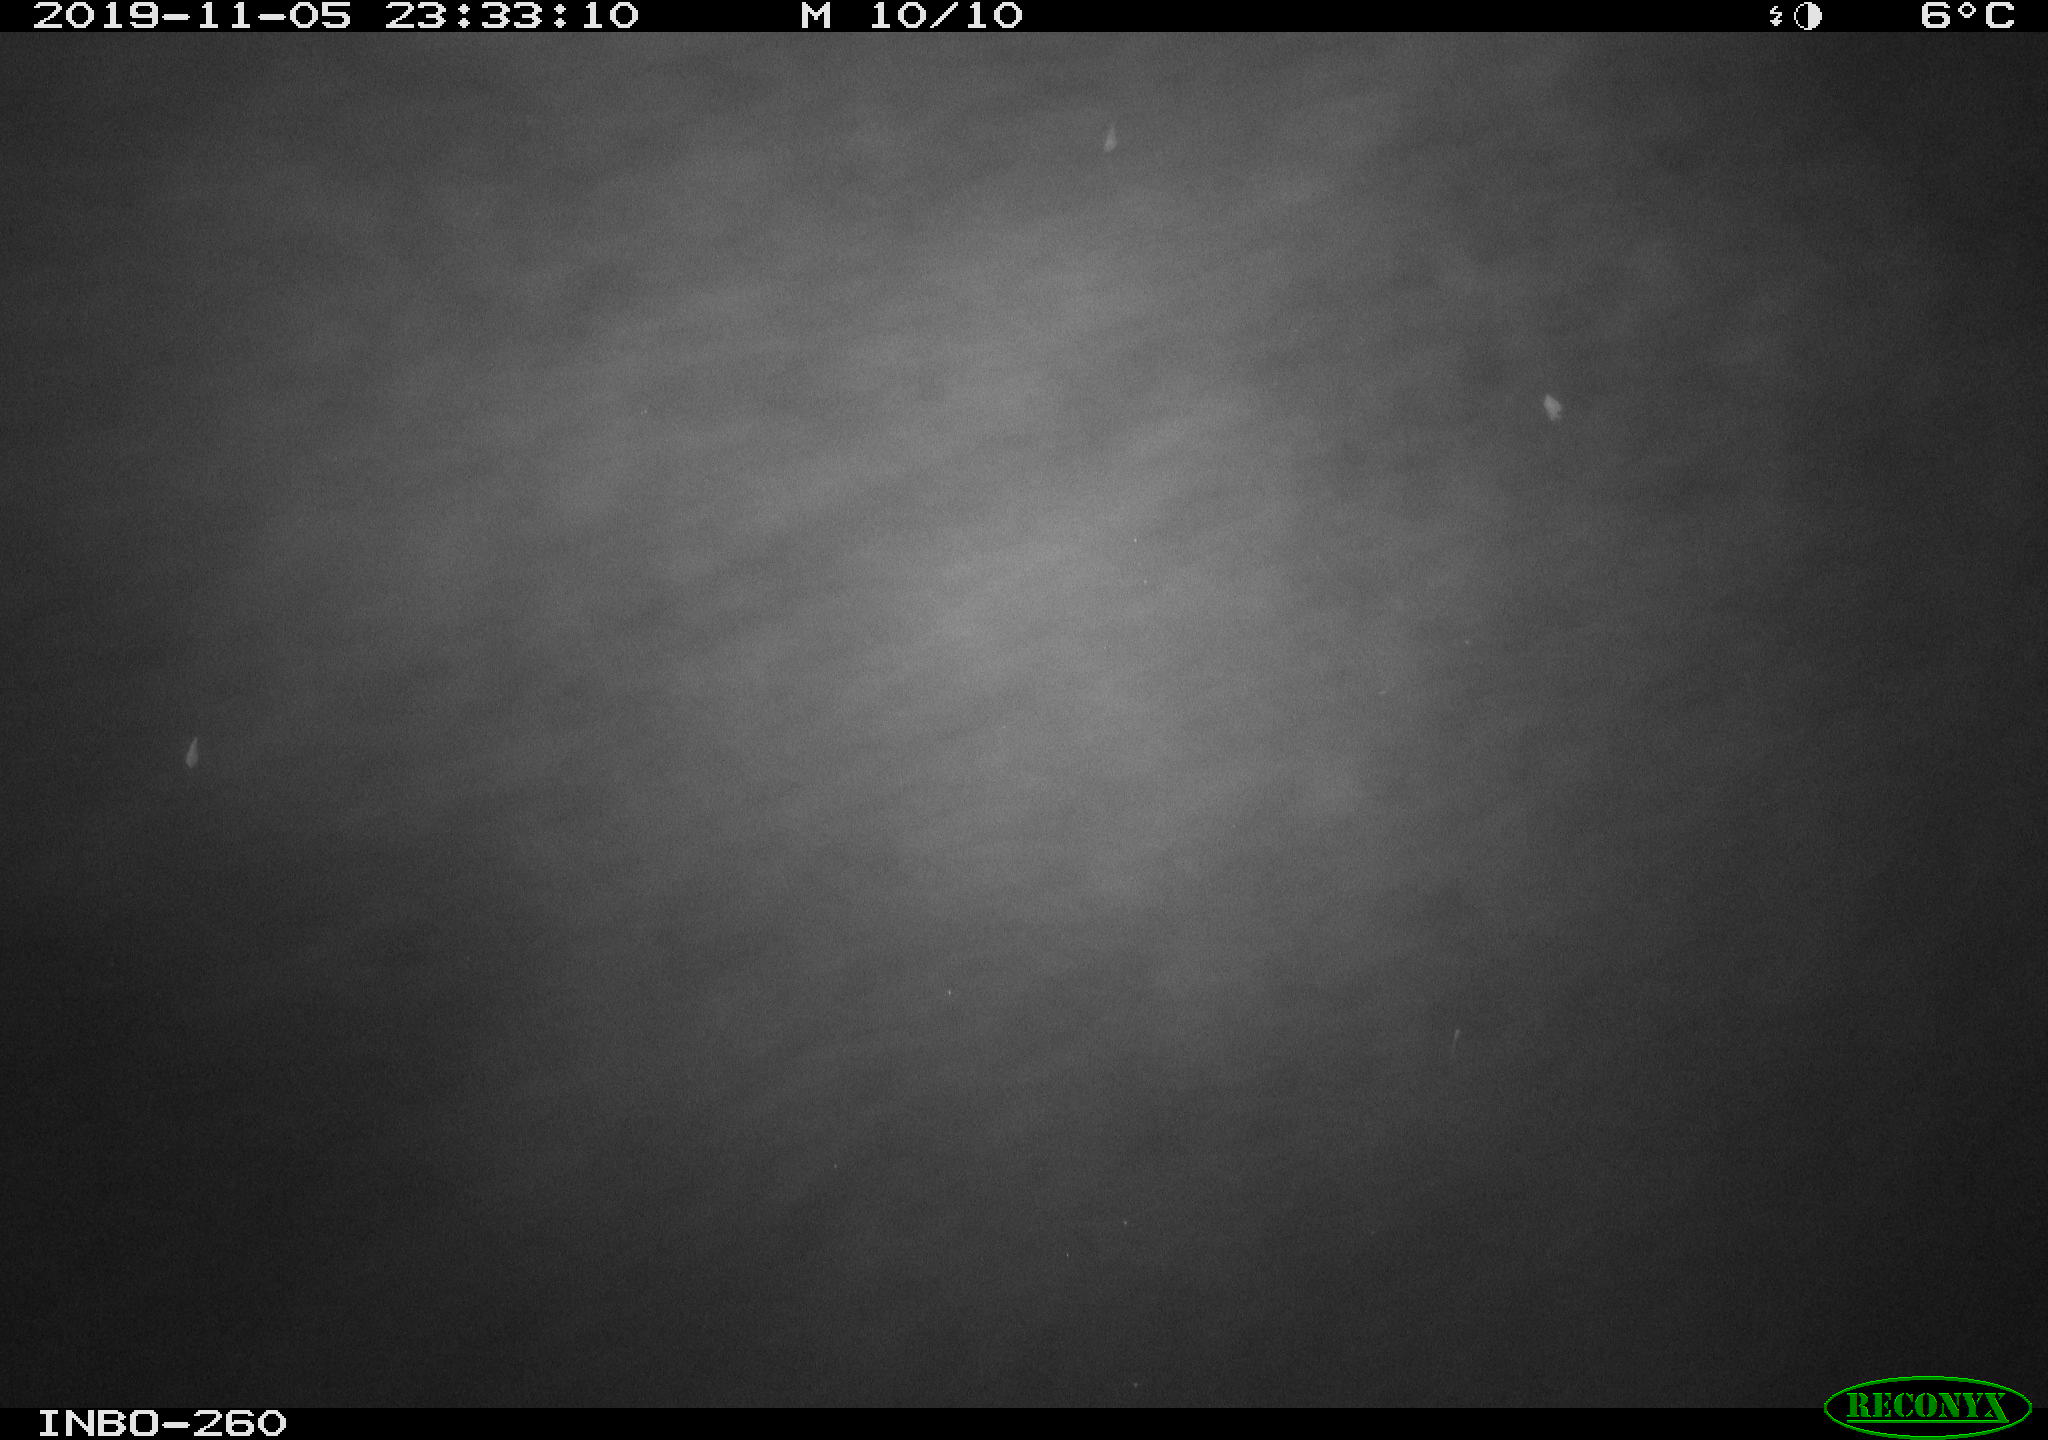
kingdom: Animalia
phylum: Chordata
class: Aves
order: Anseriformes
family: Anatidae
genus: Anas
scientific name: Anas platyrhynchos
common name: Mallard
